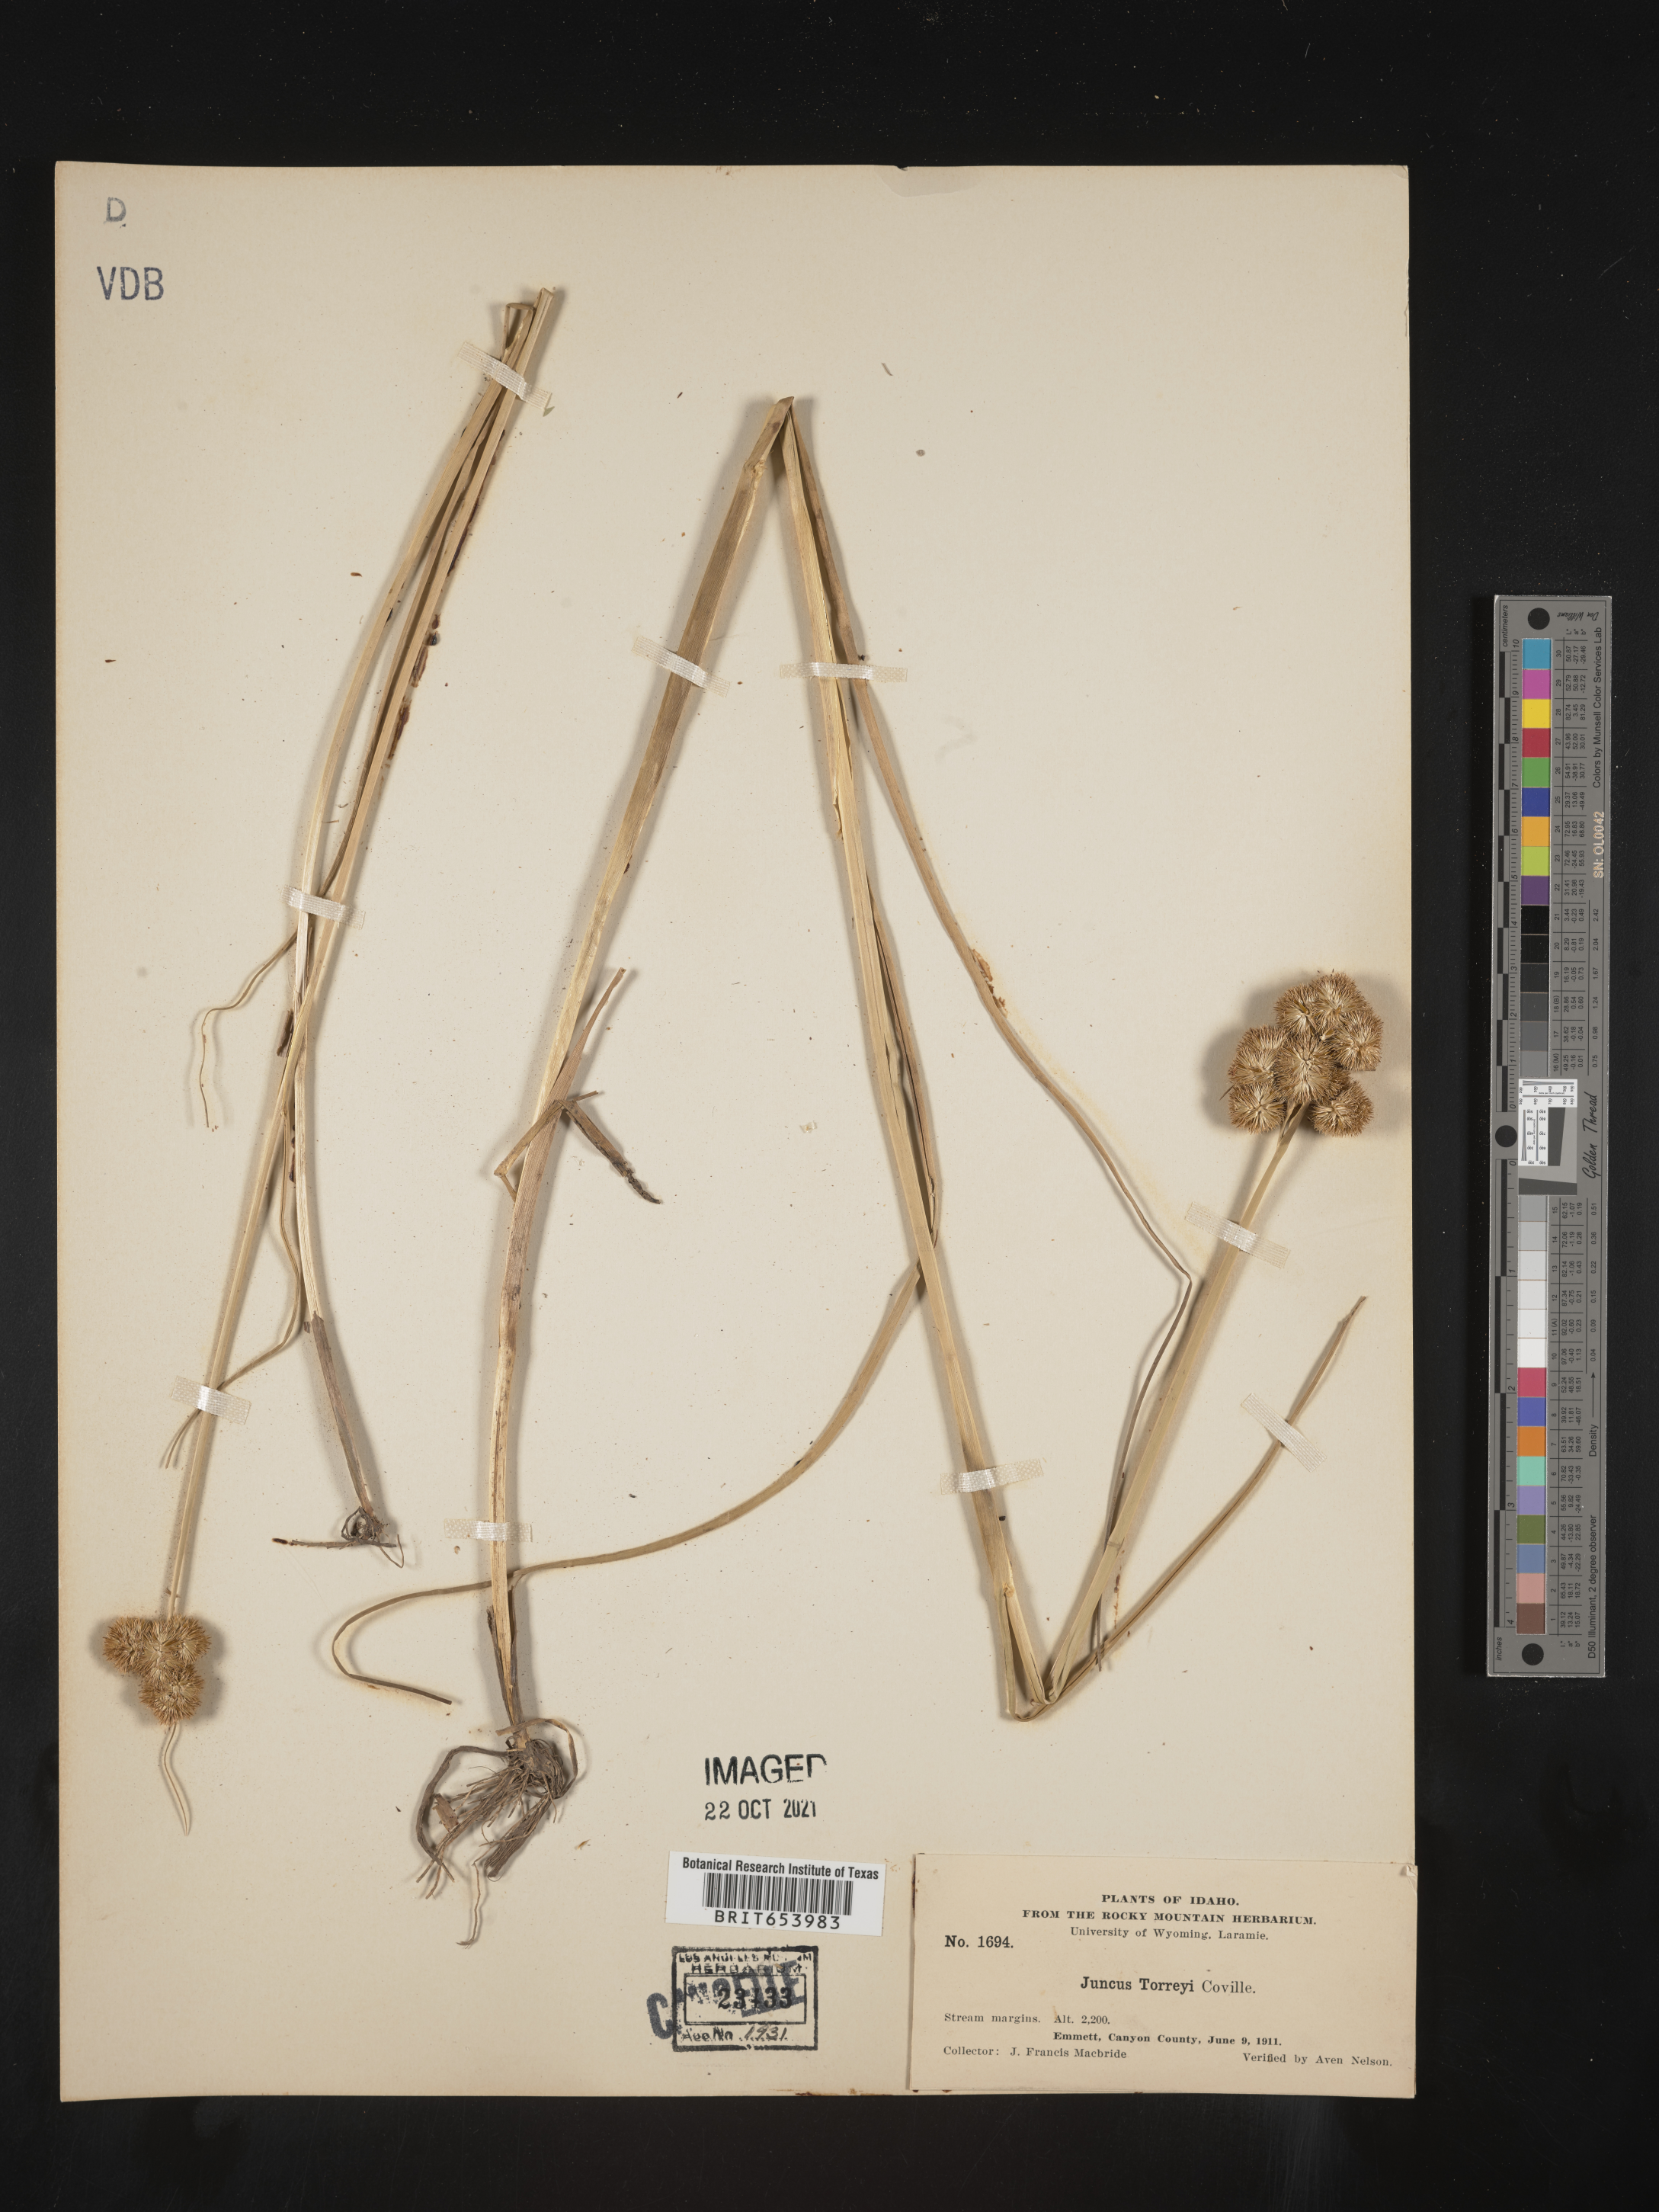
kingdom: Plantae
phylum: Tracheophyta
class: Liliopsida
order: Poales
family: Juncaceae
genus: Juncus
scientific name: Juncus torreyi
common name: Torrey's rush
